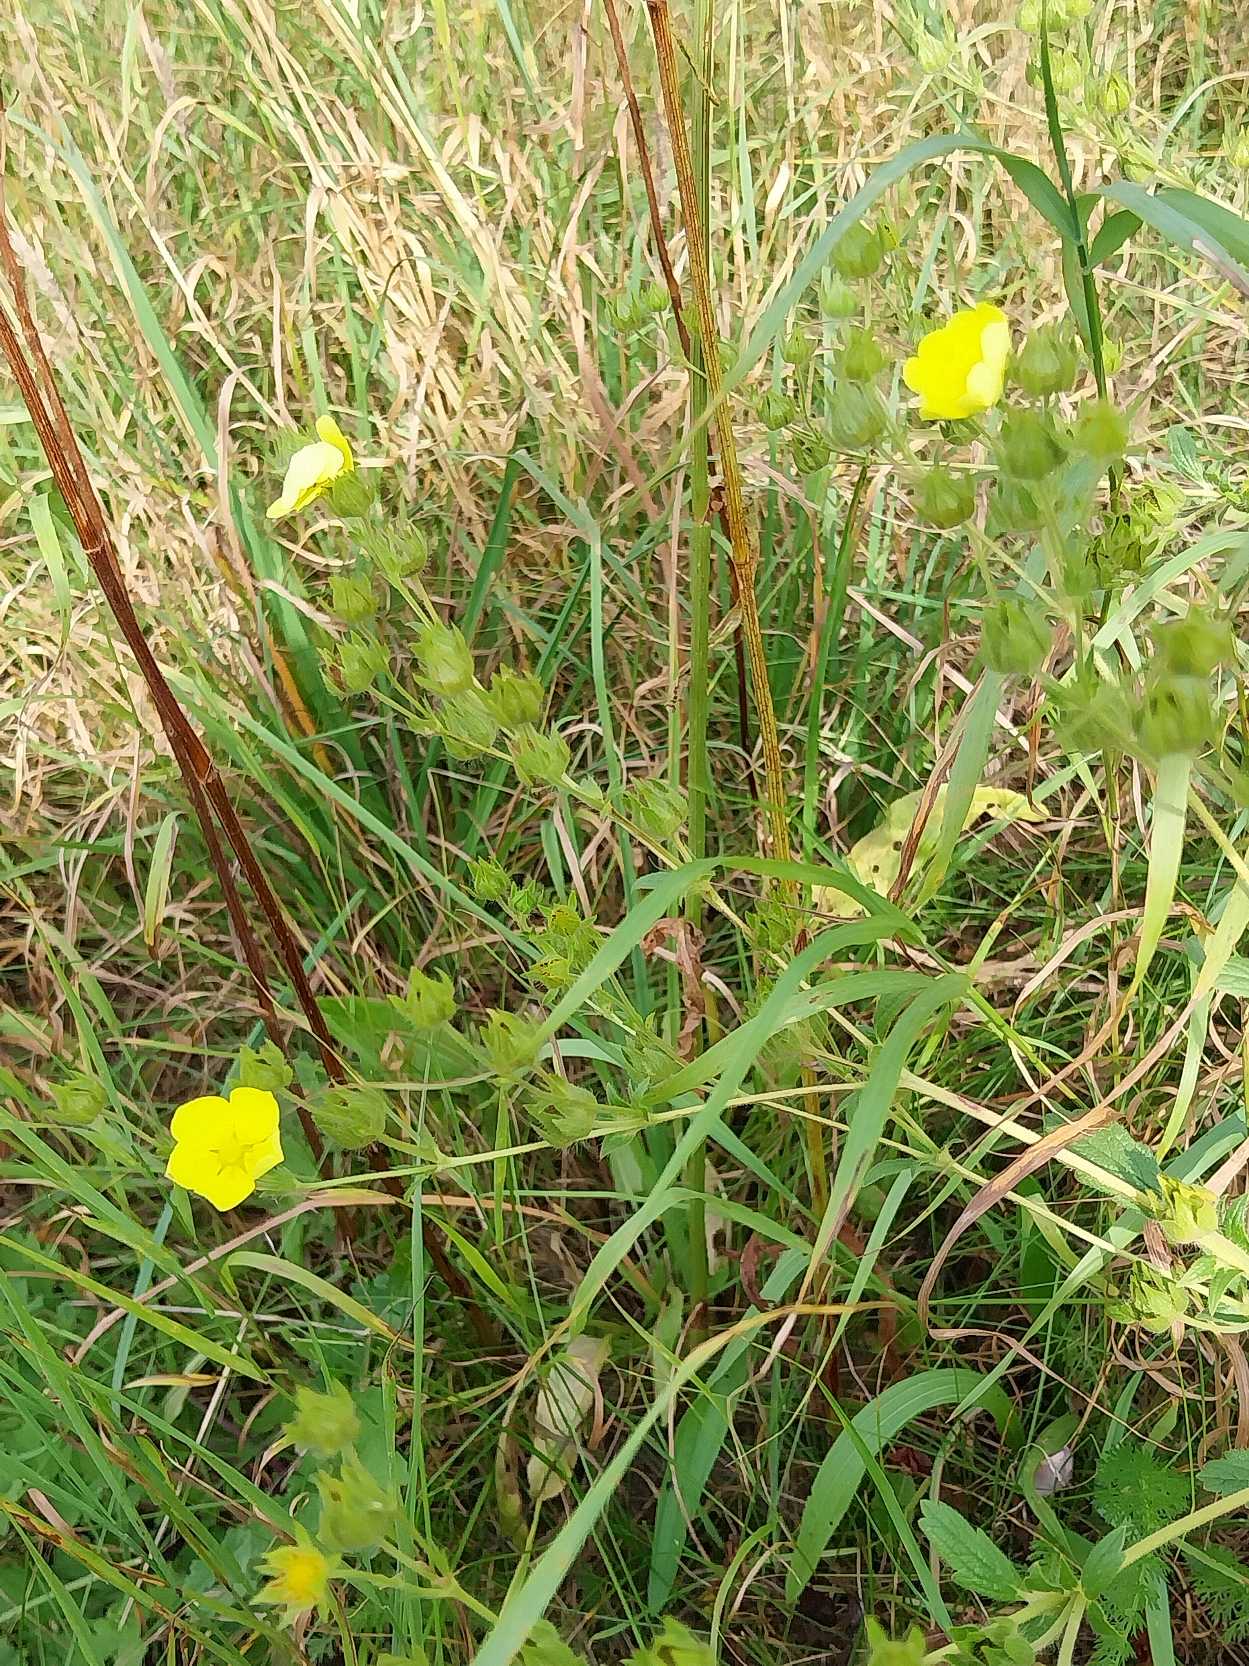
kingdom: Plantae
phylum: Tracheophyta
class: Magnoliopsida
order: Rosales
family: Rosaceae
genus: Potentilla
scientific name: Potentilla recta
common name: Rank potentil
